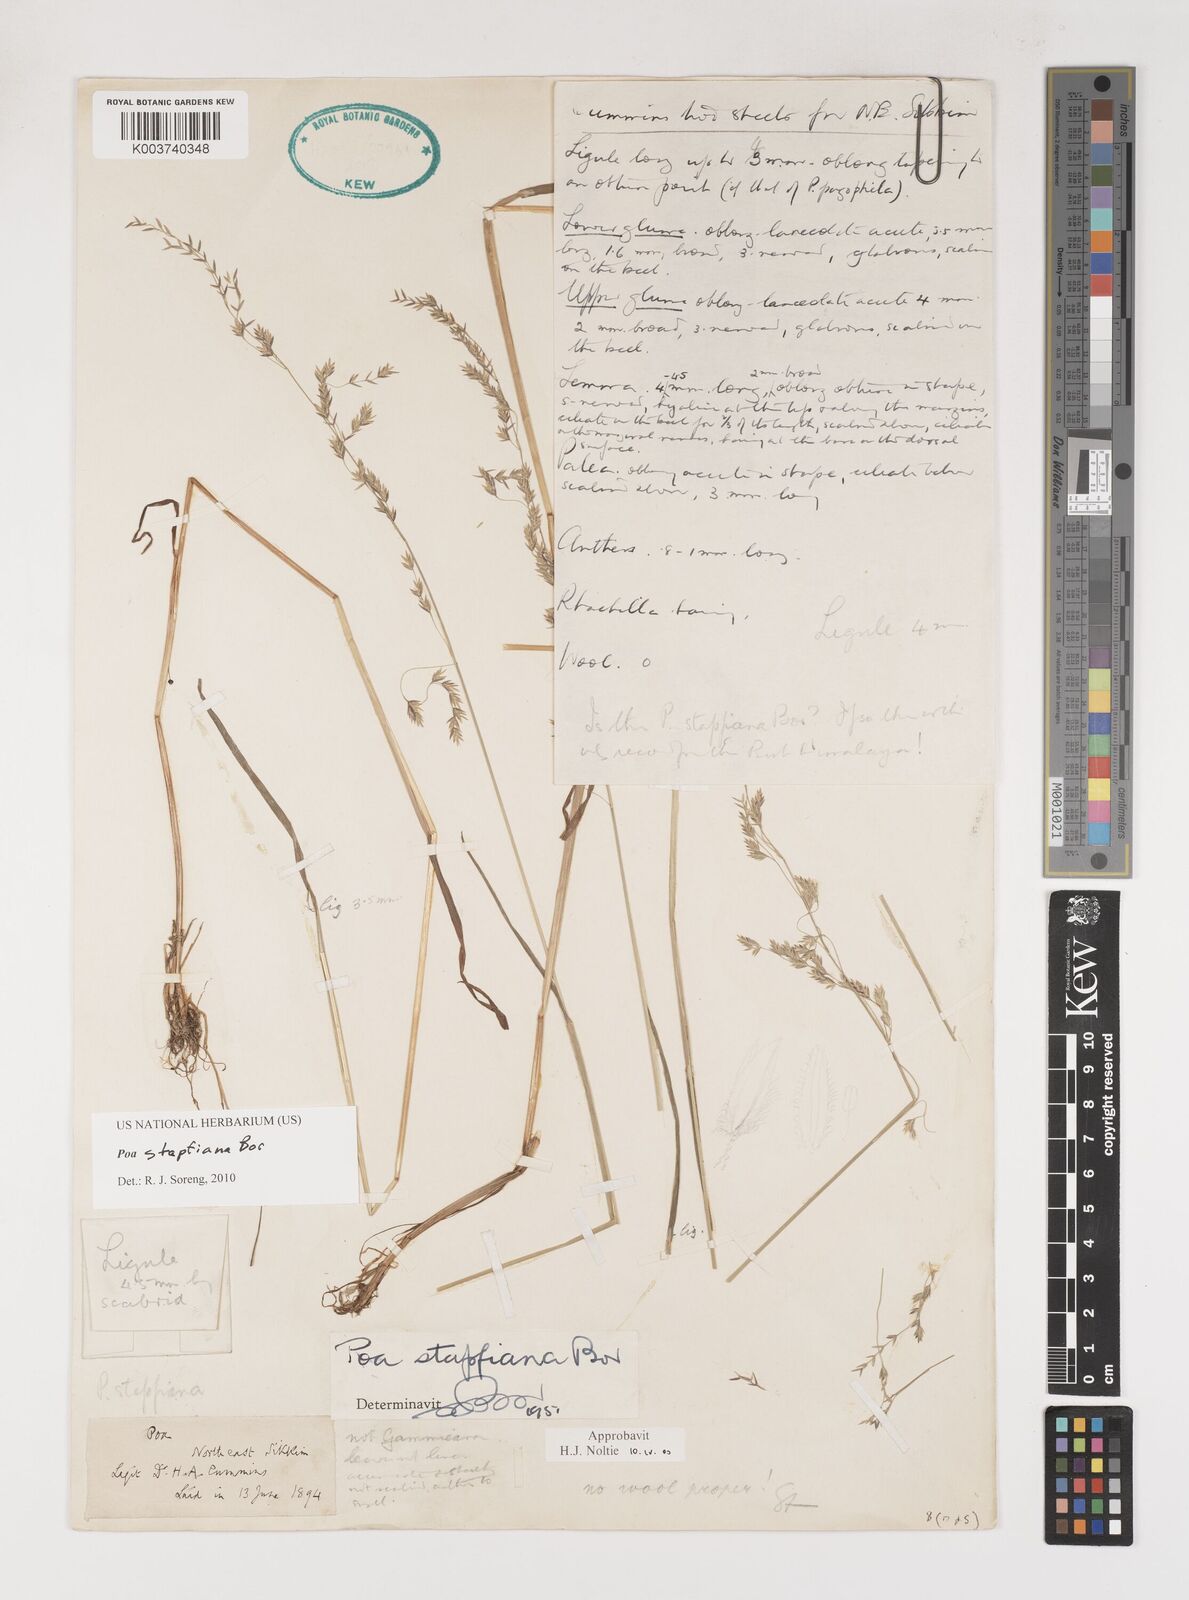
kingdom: Plantae
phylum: Tracheophyta
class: Liliopsida
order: Poales
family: Poaceae
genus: Poa
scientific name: Poa stapfiana
